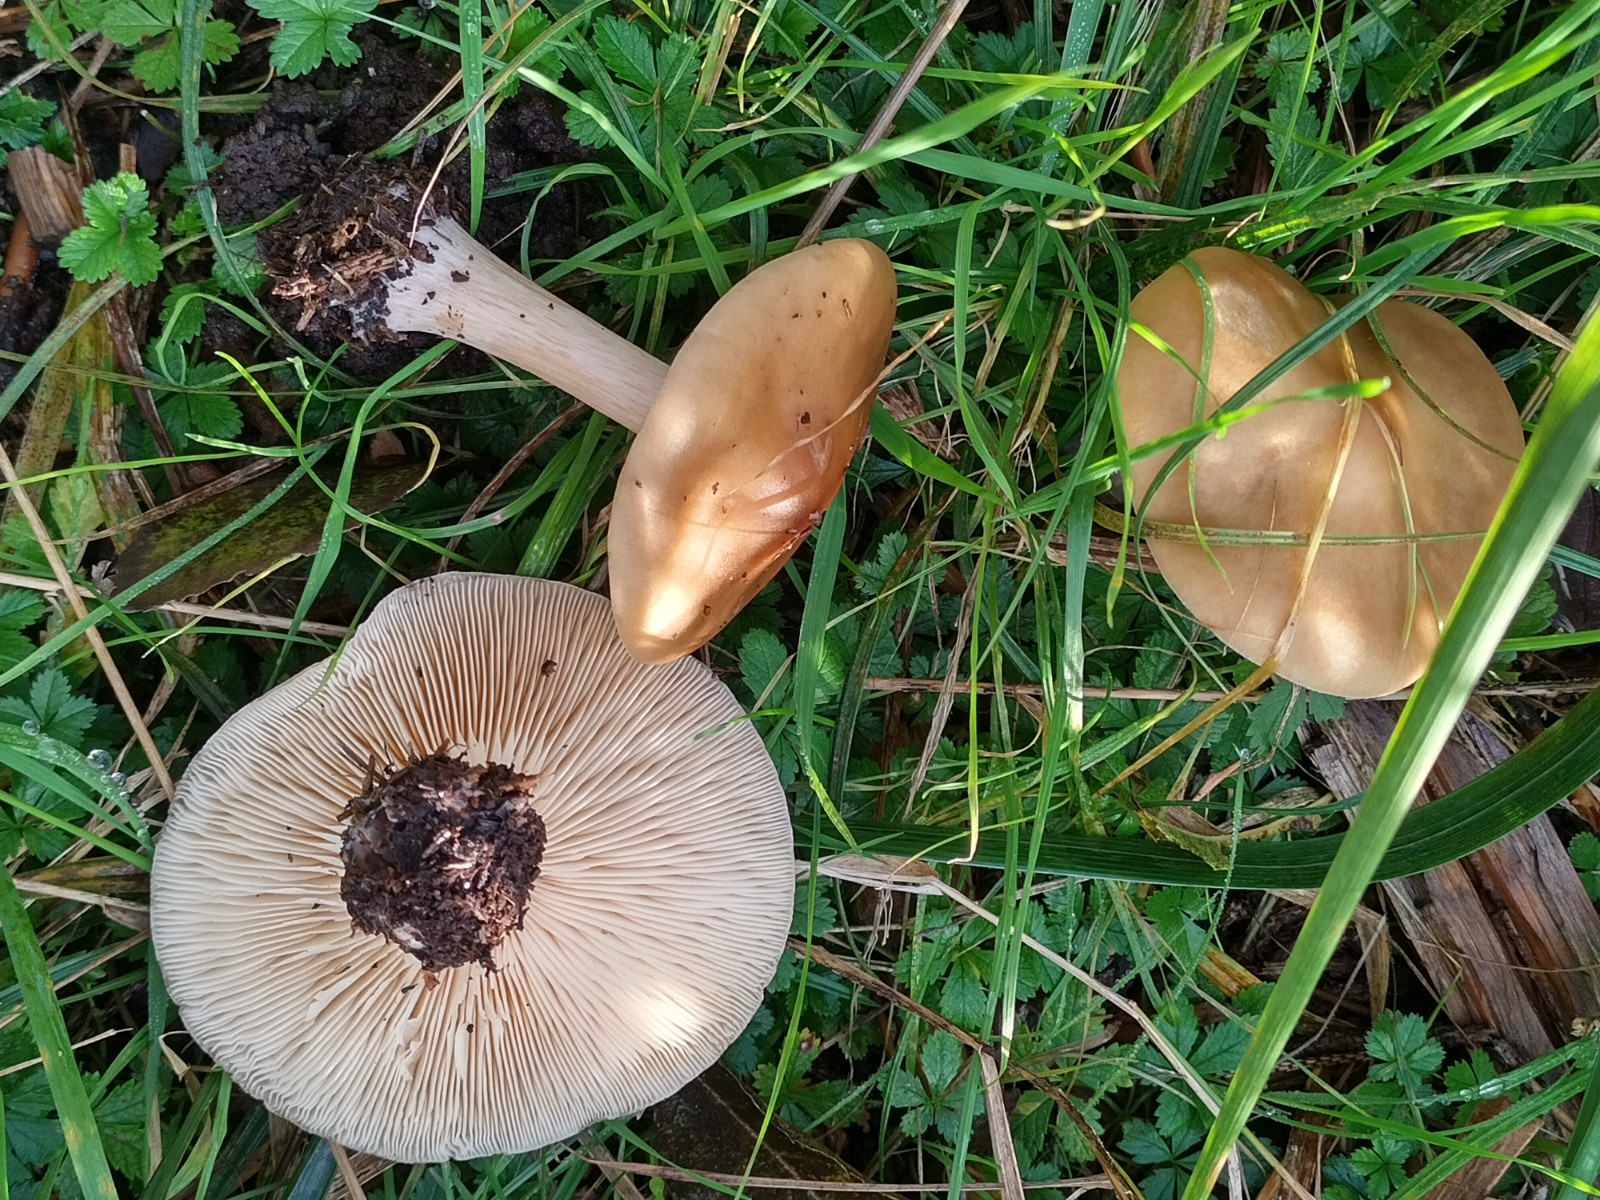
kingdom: Fungi
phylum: Basidiomycota
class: Agaricomycetes
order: Agaricales
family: Tricholomataceae
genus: Melanoleuca
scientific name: Melanoleuca cognata
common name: gyldengrå munkehat
